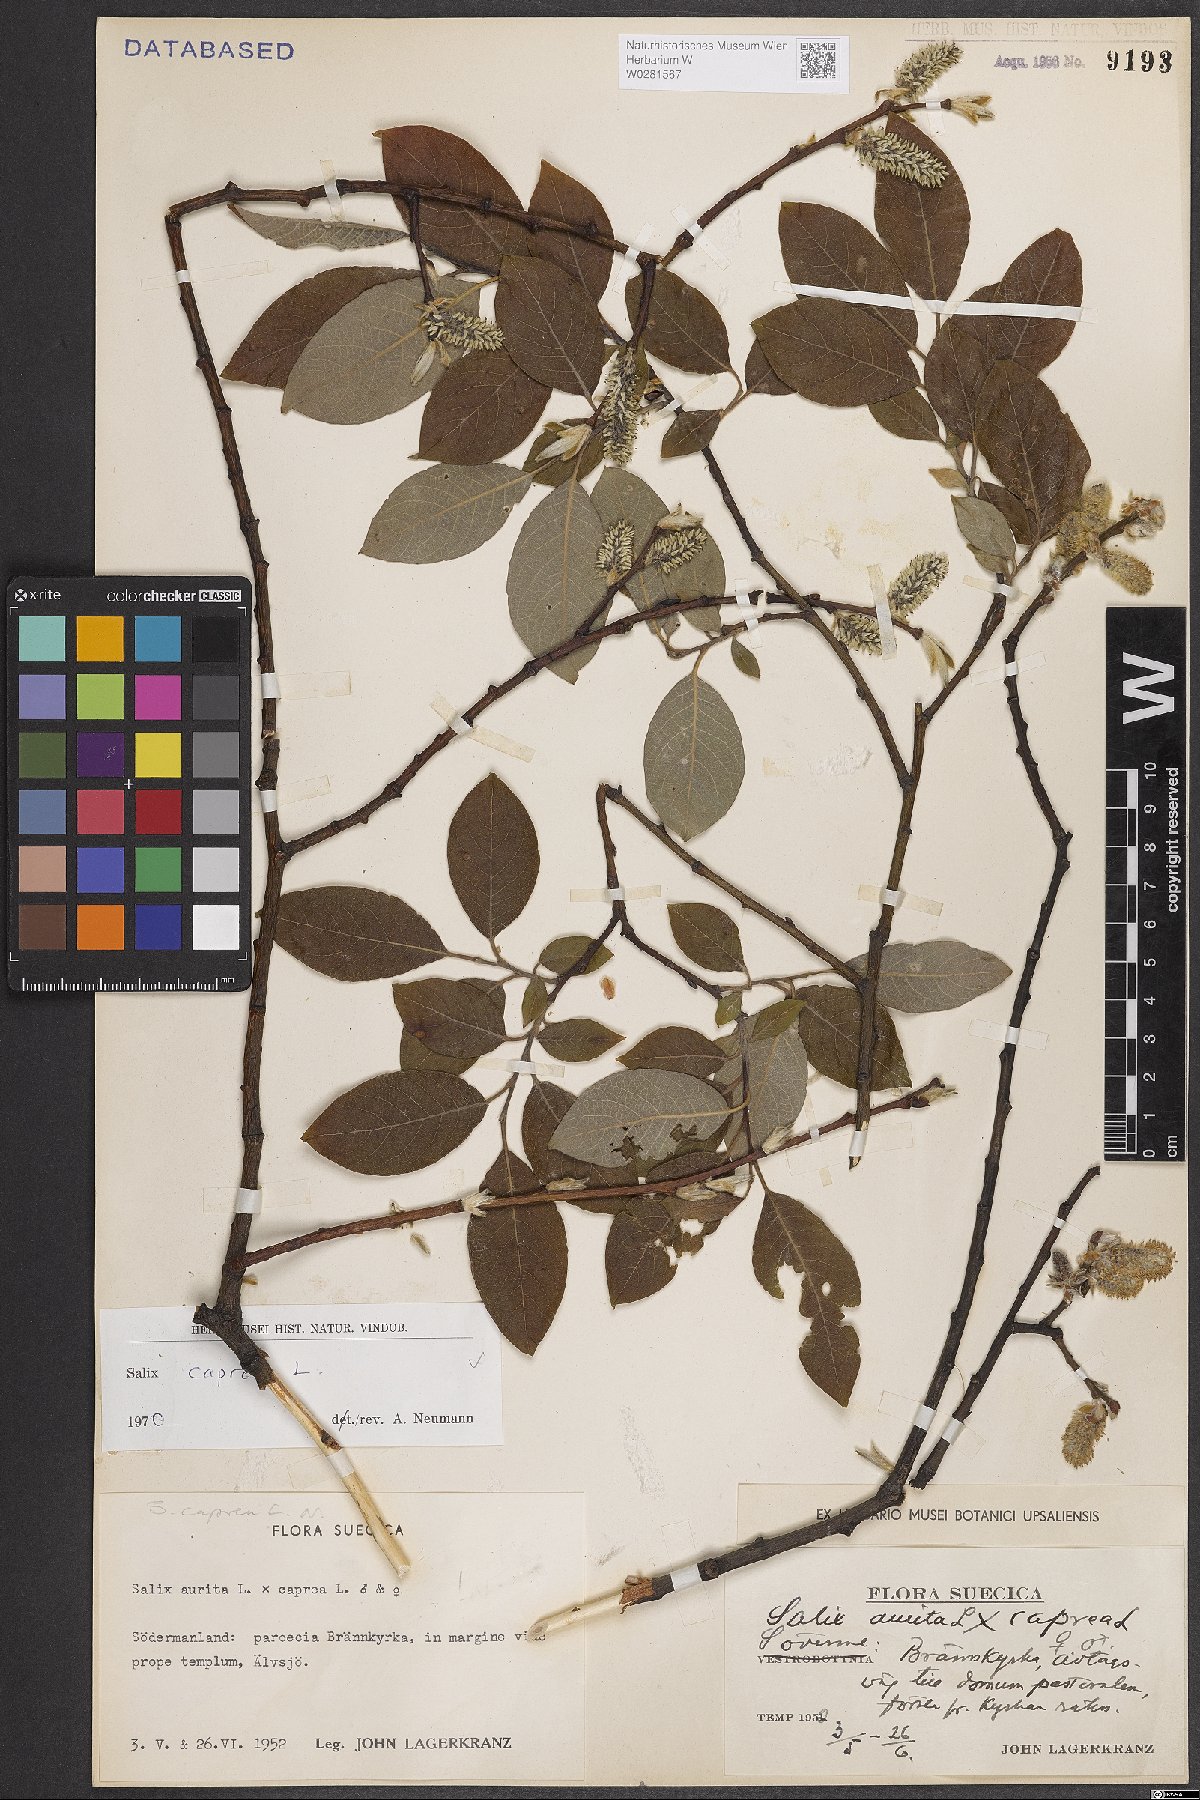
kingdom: Plantae
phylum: Tracheophyta
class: Magnoliopsida
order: Malpighiales
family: Salicaceae
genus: Salix
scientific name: Salix caprea
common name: Goat willow
